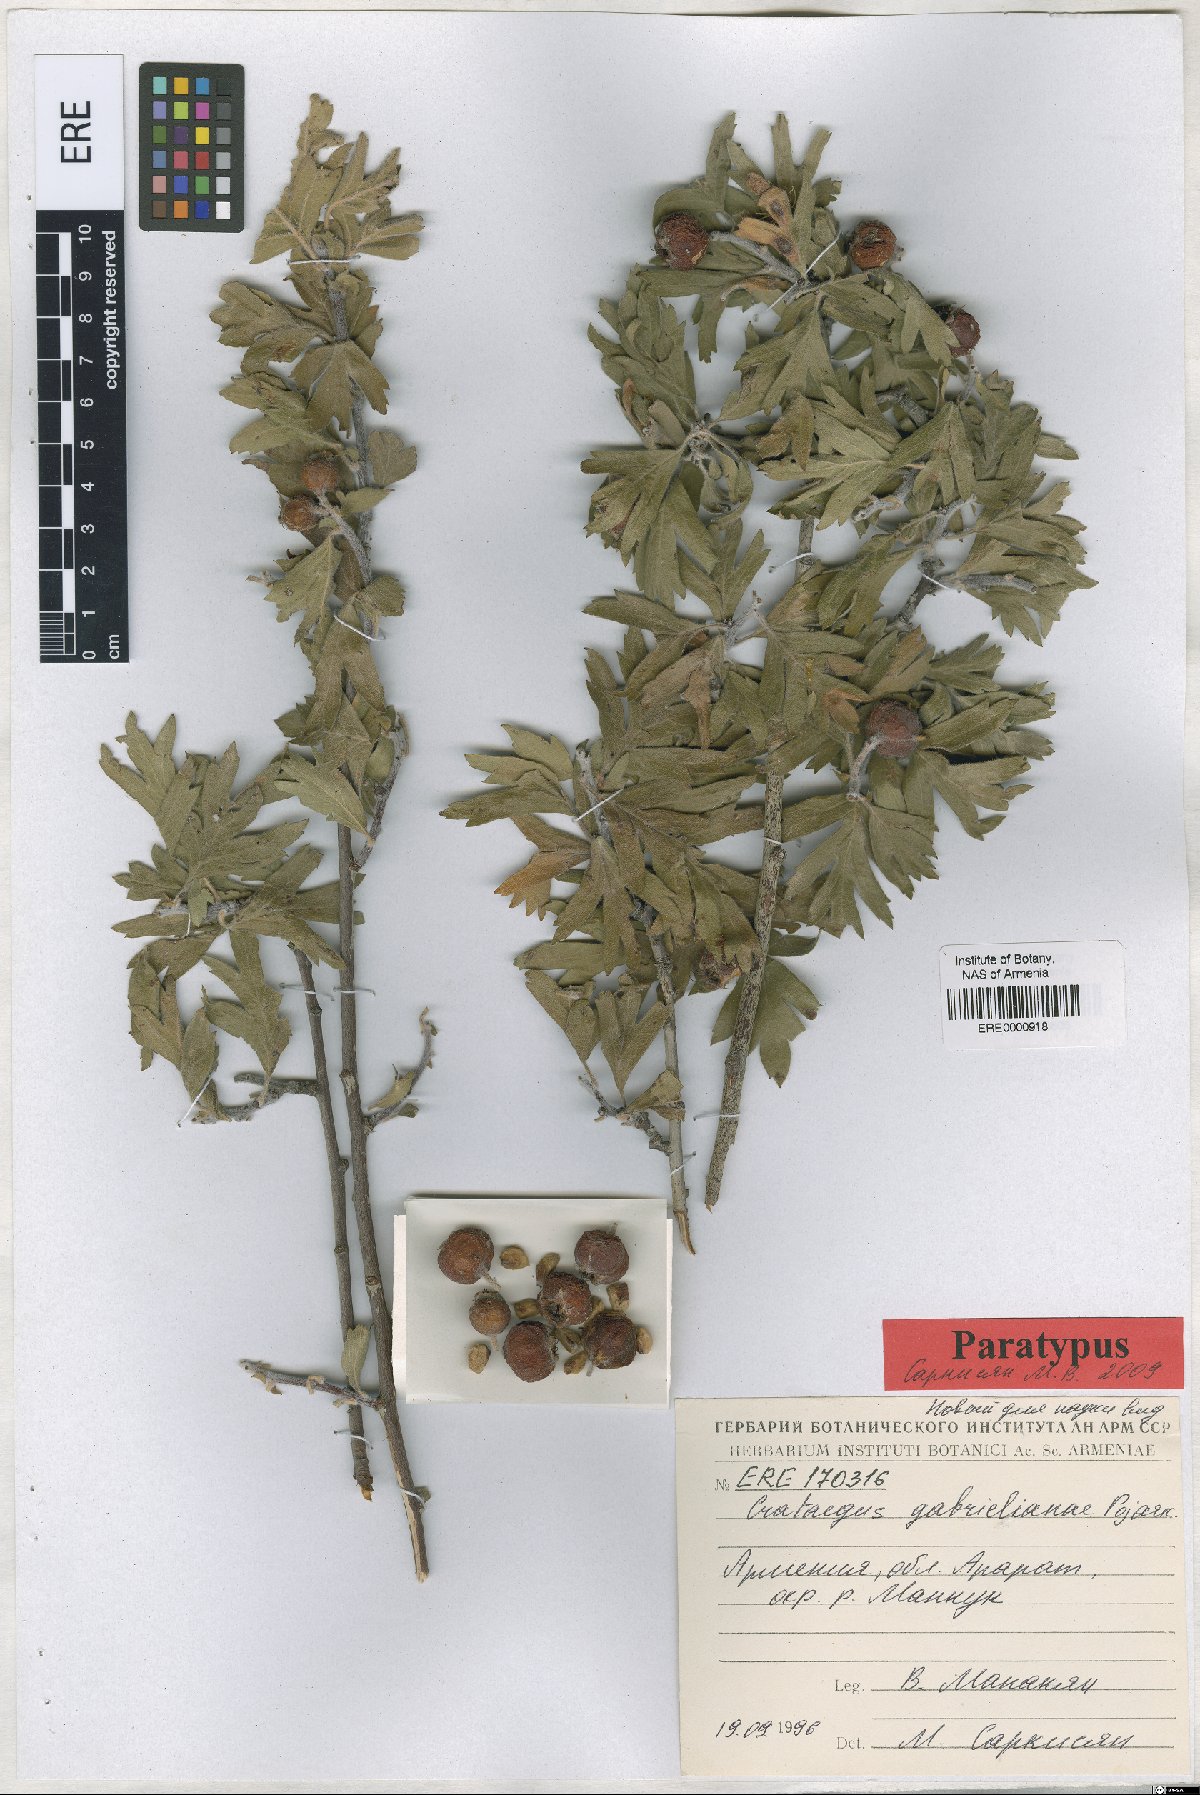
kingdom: Plantae
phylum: Tracheophyta
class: Magnoliopsida
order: Rosales
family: Rosaceae
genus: Crataegus
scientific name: Crataegus
